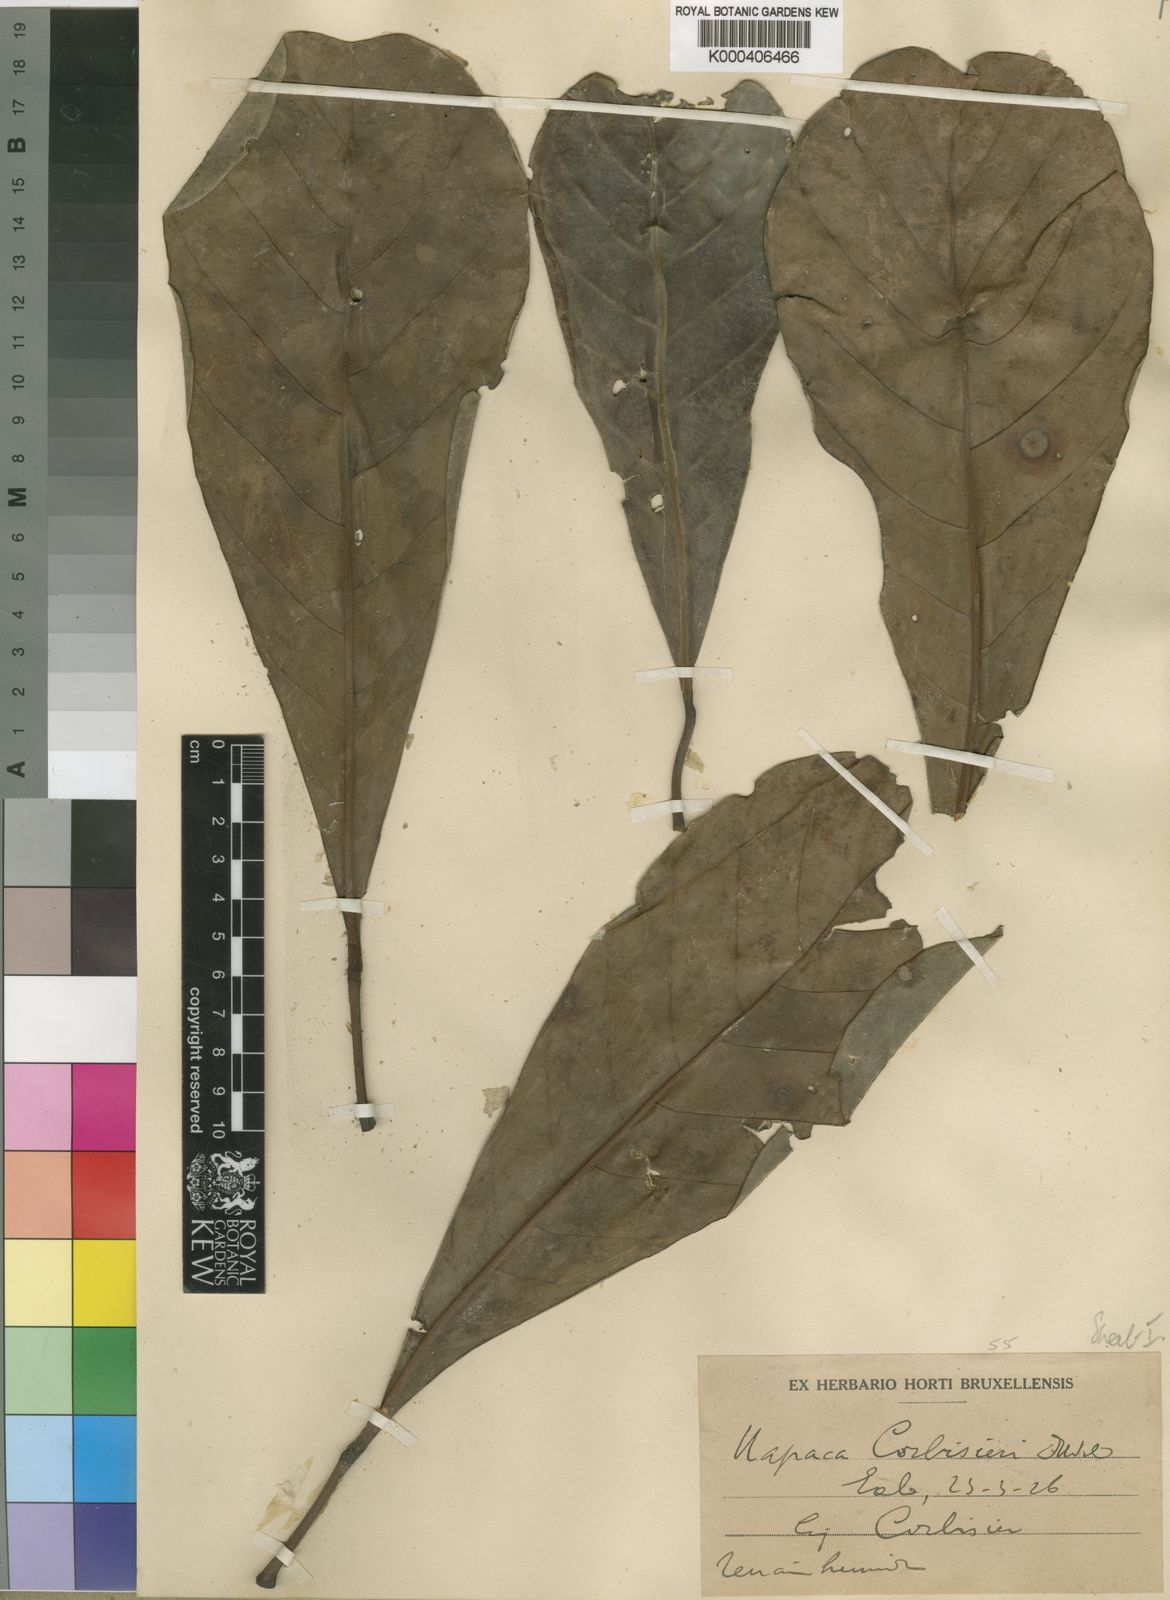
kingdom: Plantae
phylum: Tracheophyta
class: Magnoliopsida
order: Malpighiales
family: Phyllanthaceae
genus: Uapaca
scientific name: Uapaca pynaertii
